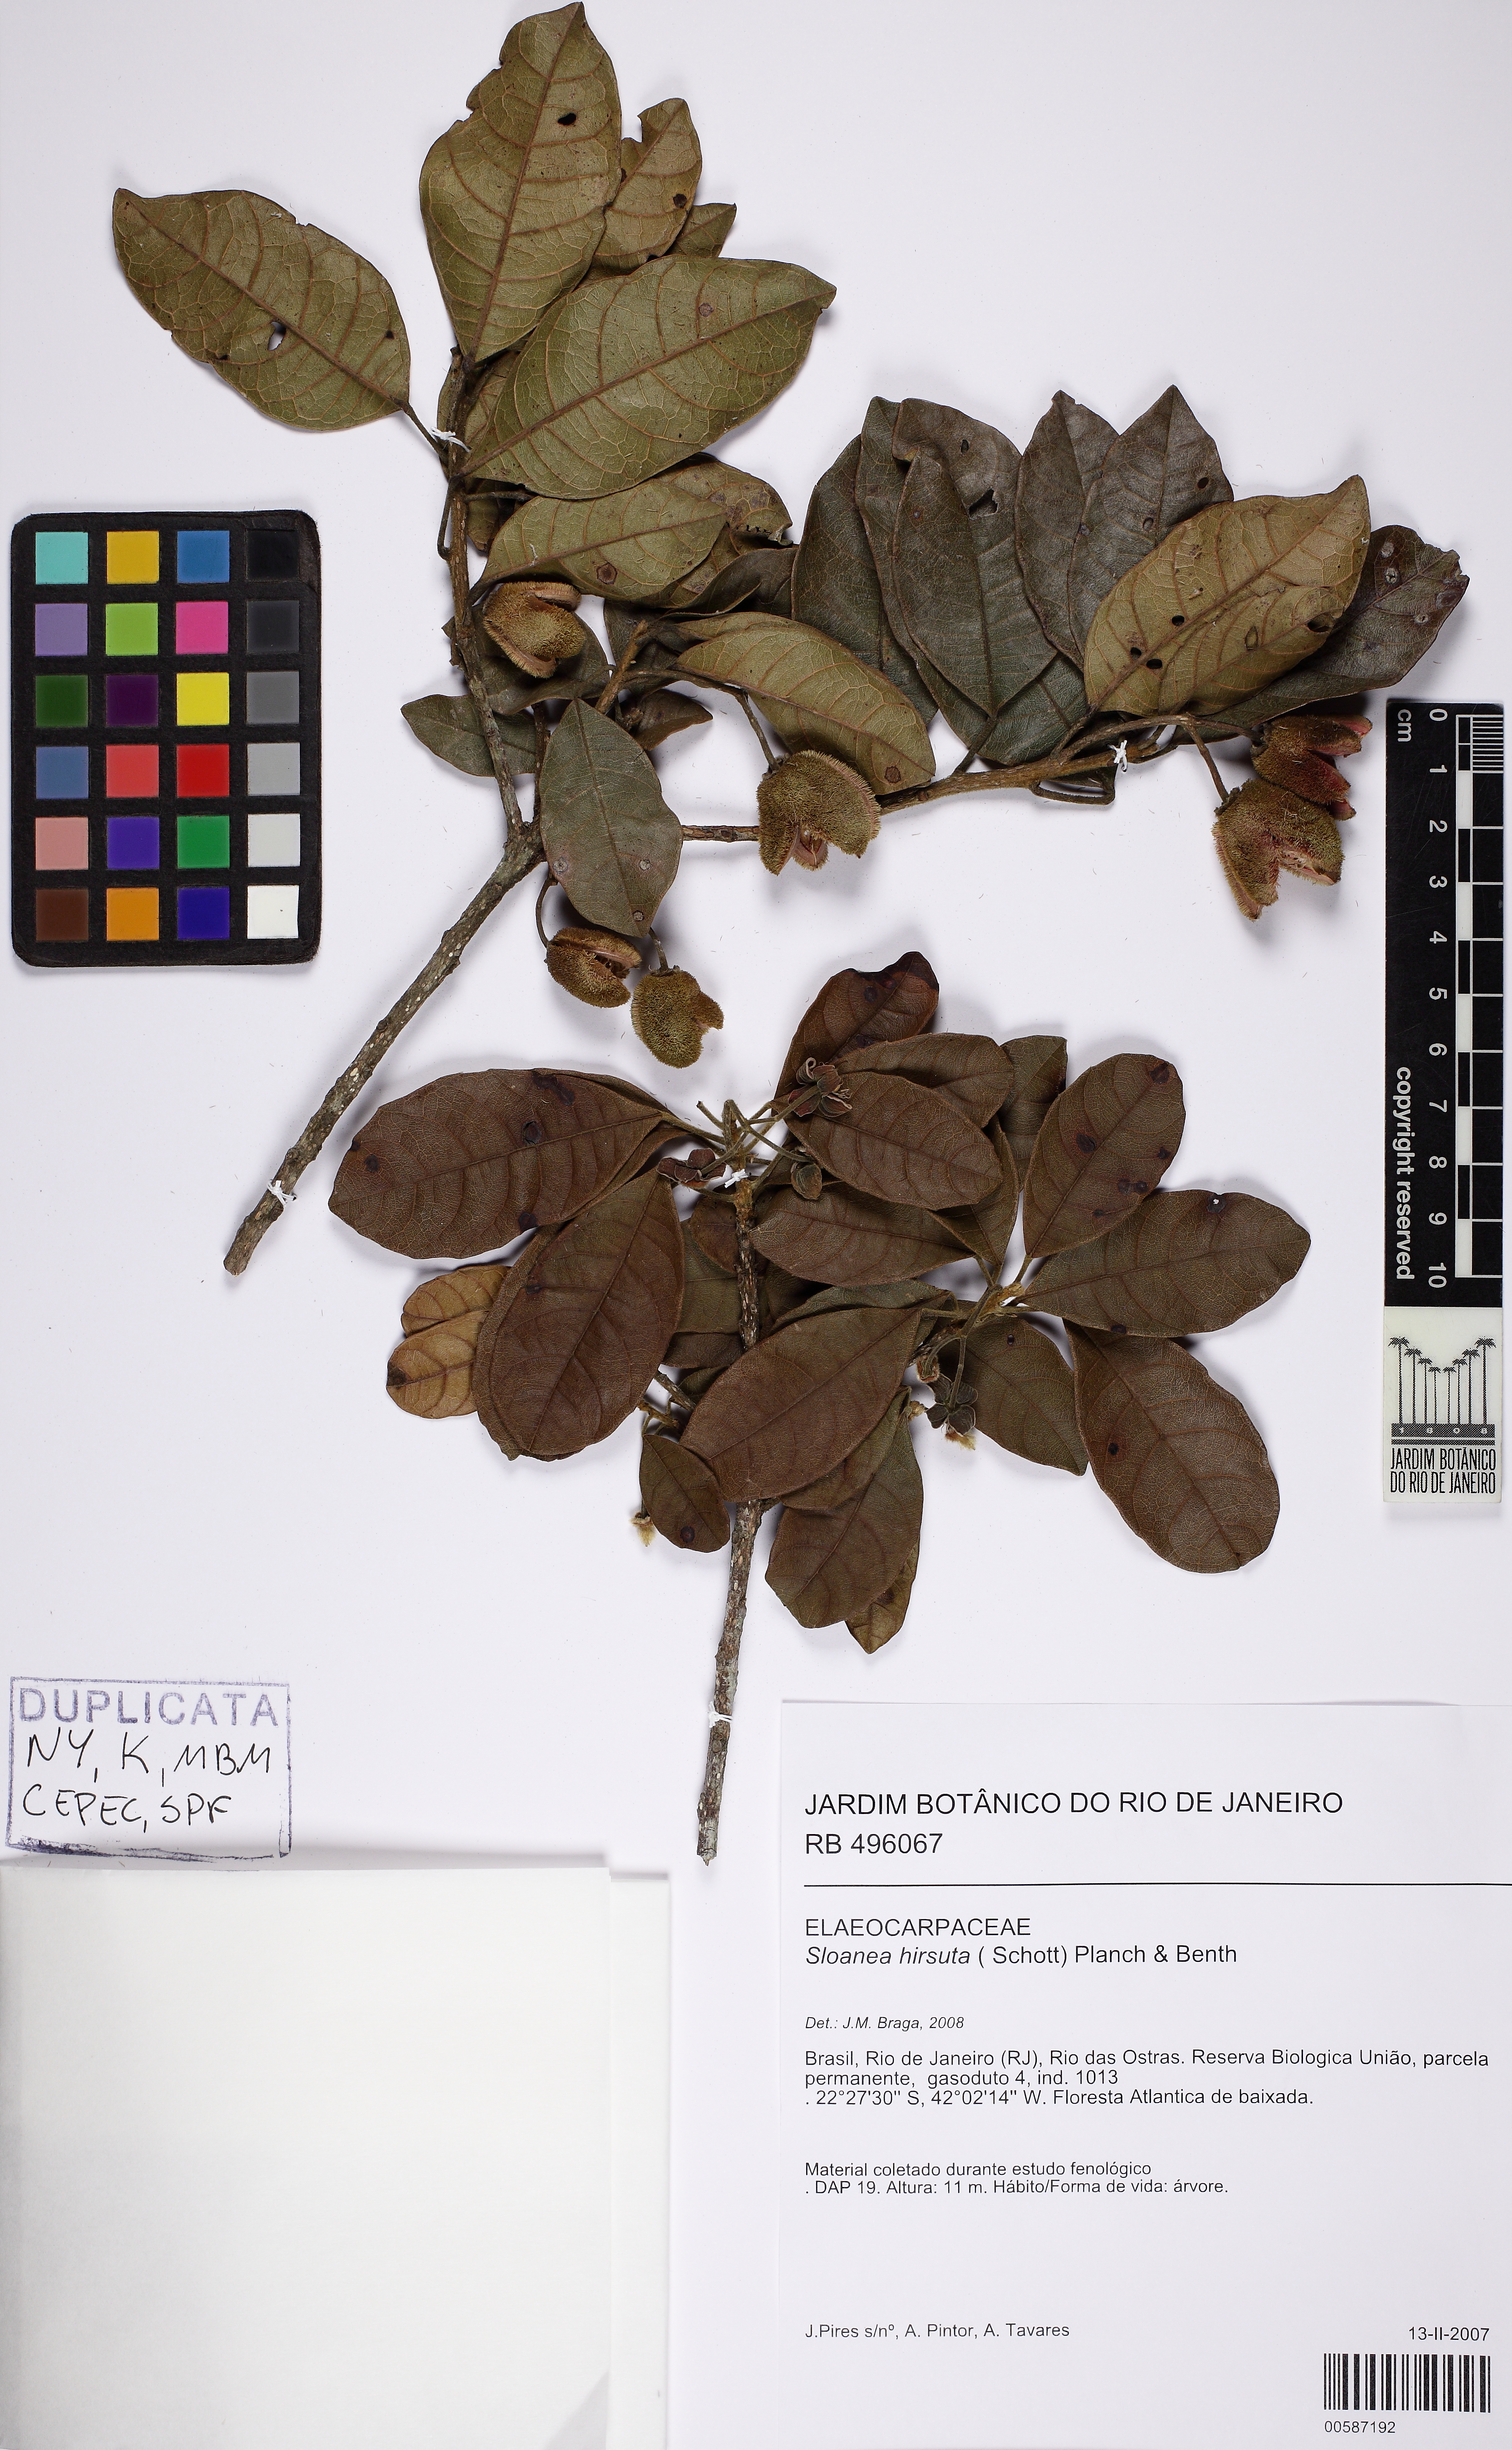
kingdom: Plantae
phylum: Tracheophyta
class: Magnoliopsida
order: Oxalidales
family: Elaeocarpaceae
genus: Sloanea
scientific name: Sloanea hirsuta
